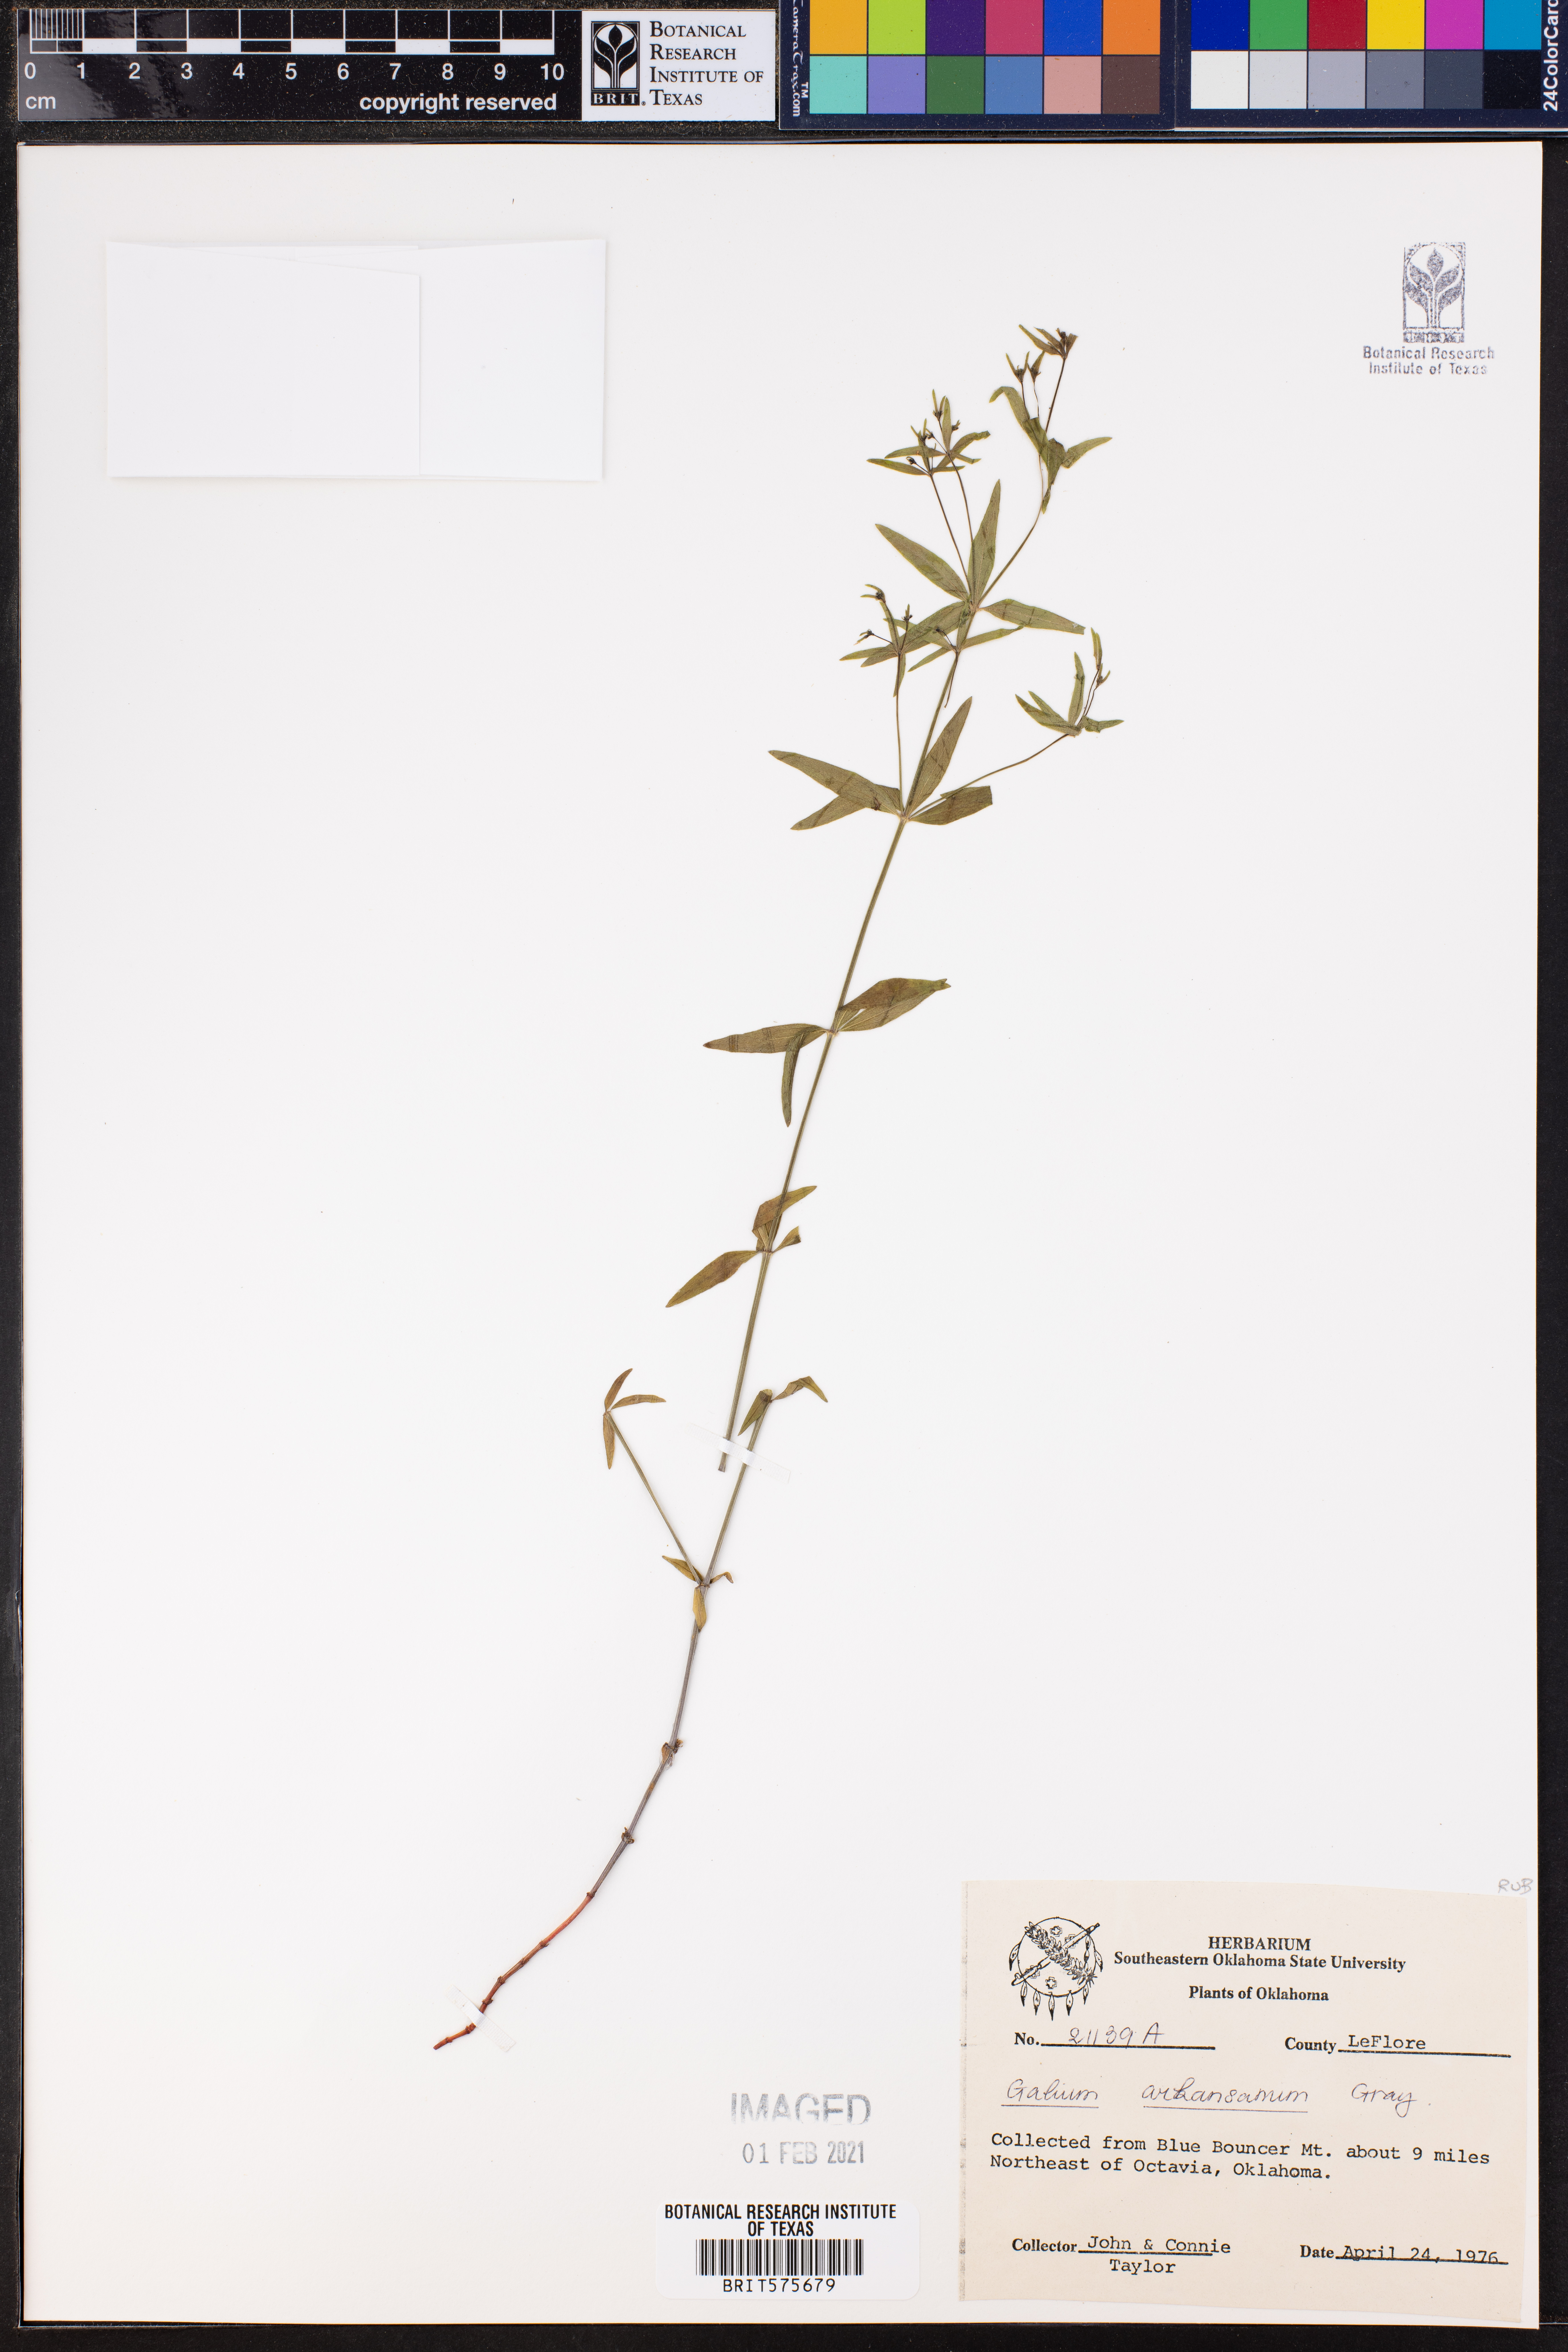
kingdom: Plantae
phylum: Tracheophyta
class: Magnoliopsida
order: Gentianales
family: Rubiaceae
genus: Galium
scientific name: Galium arkansanum
